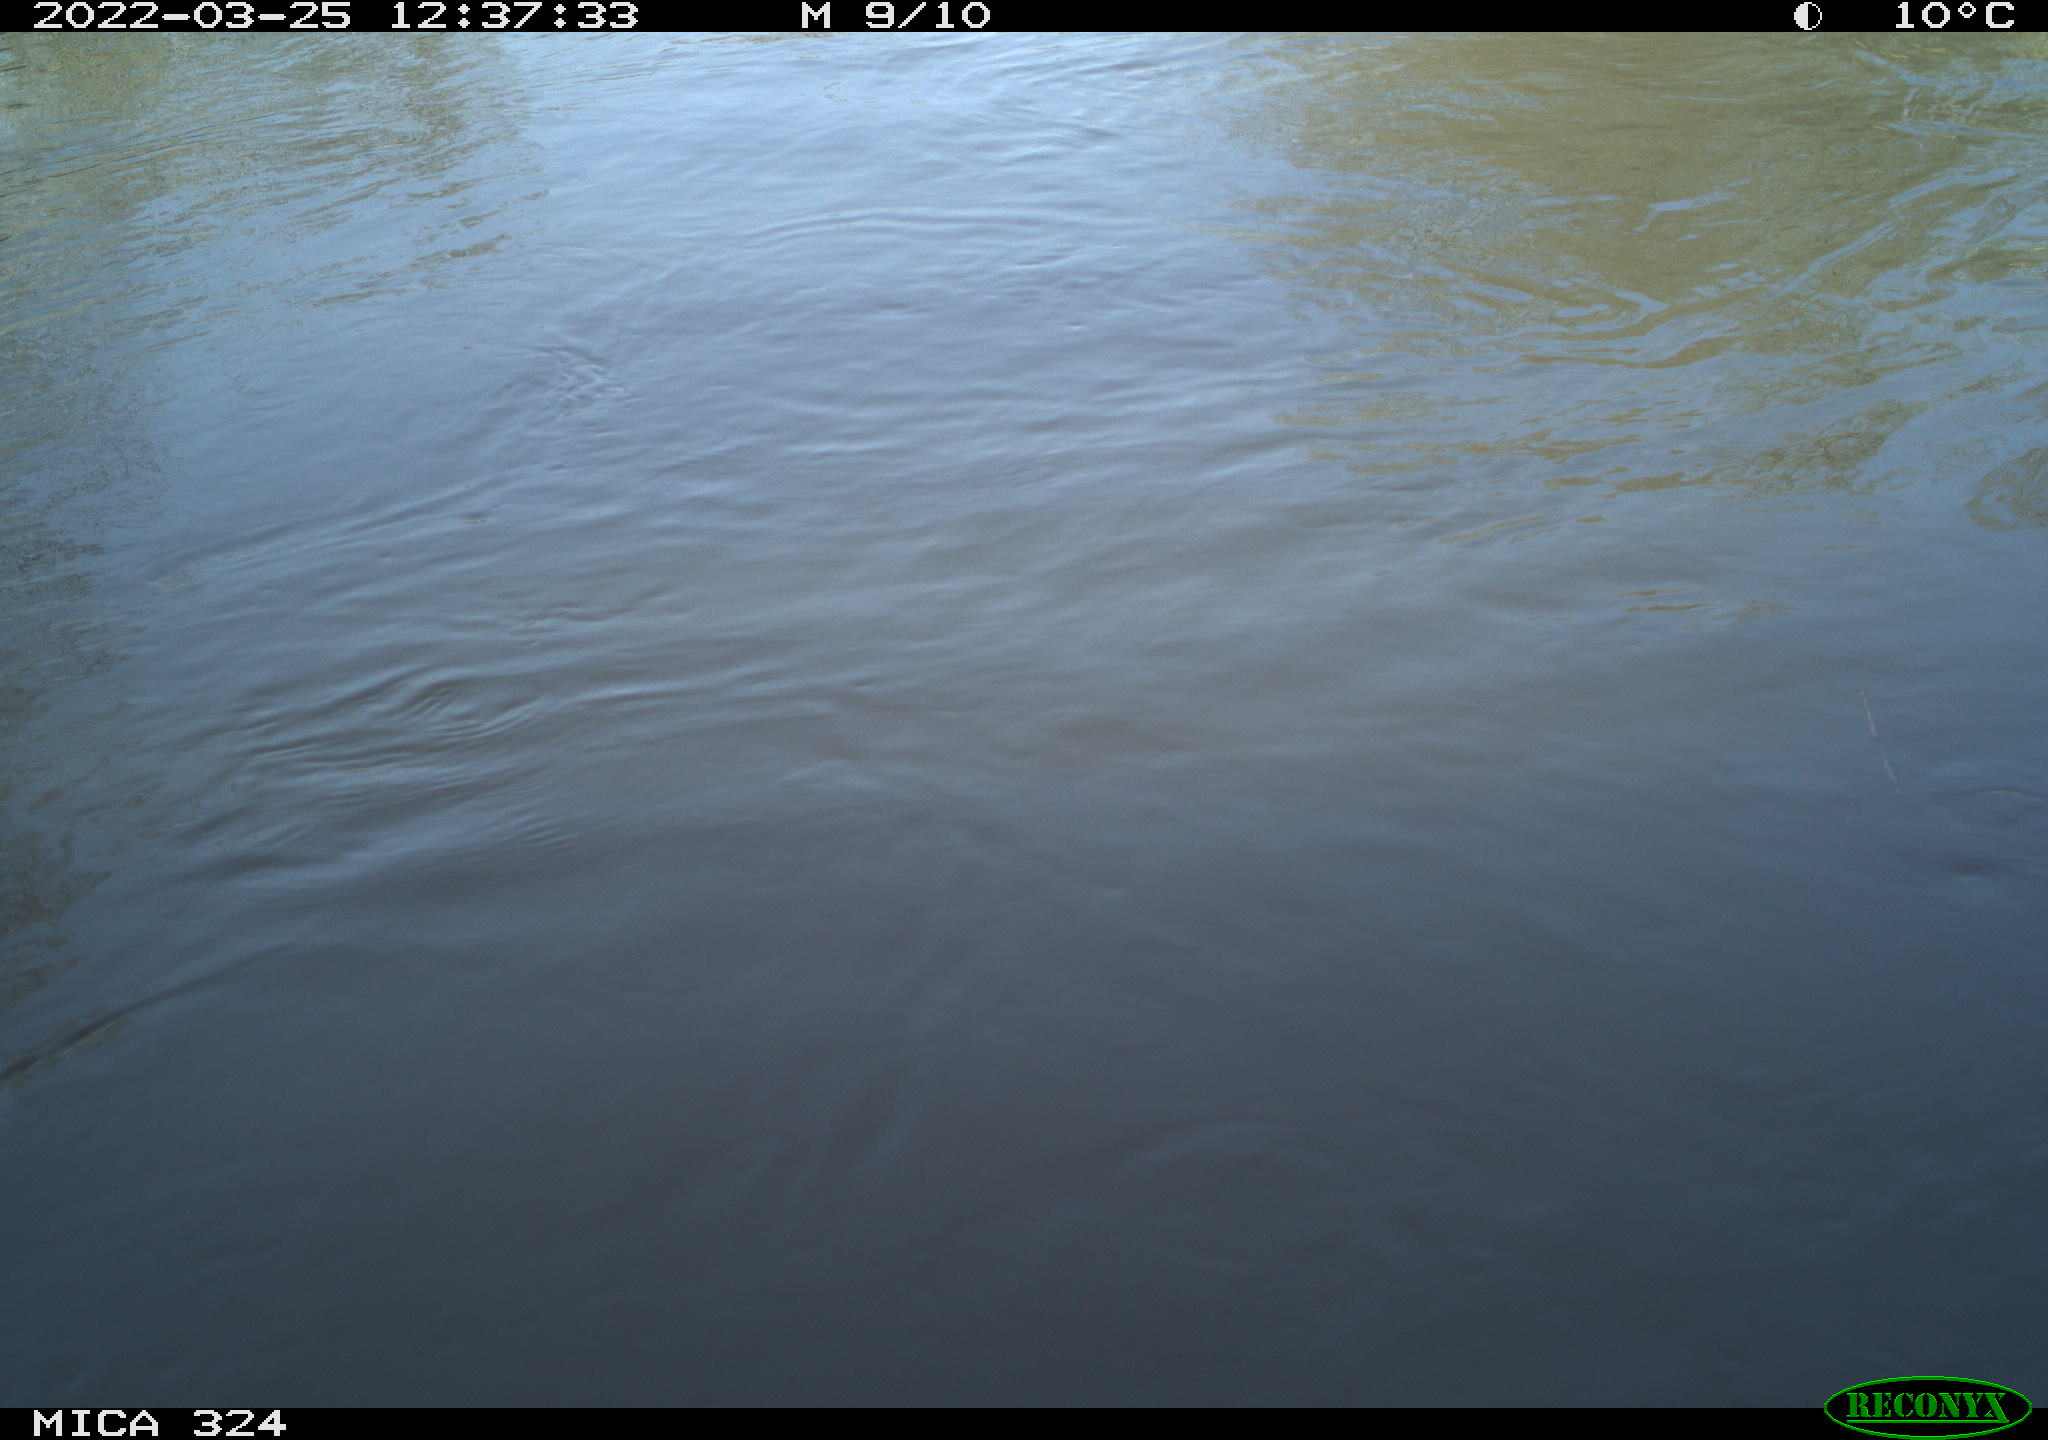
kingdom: Animalia
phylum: Chordata
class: Aves
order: Anseriformes
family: Anatidae
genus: Anas
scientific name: Anas platyrhynchos
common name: Mallard
